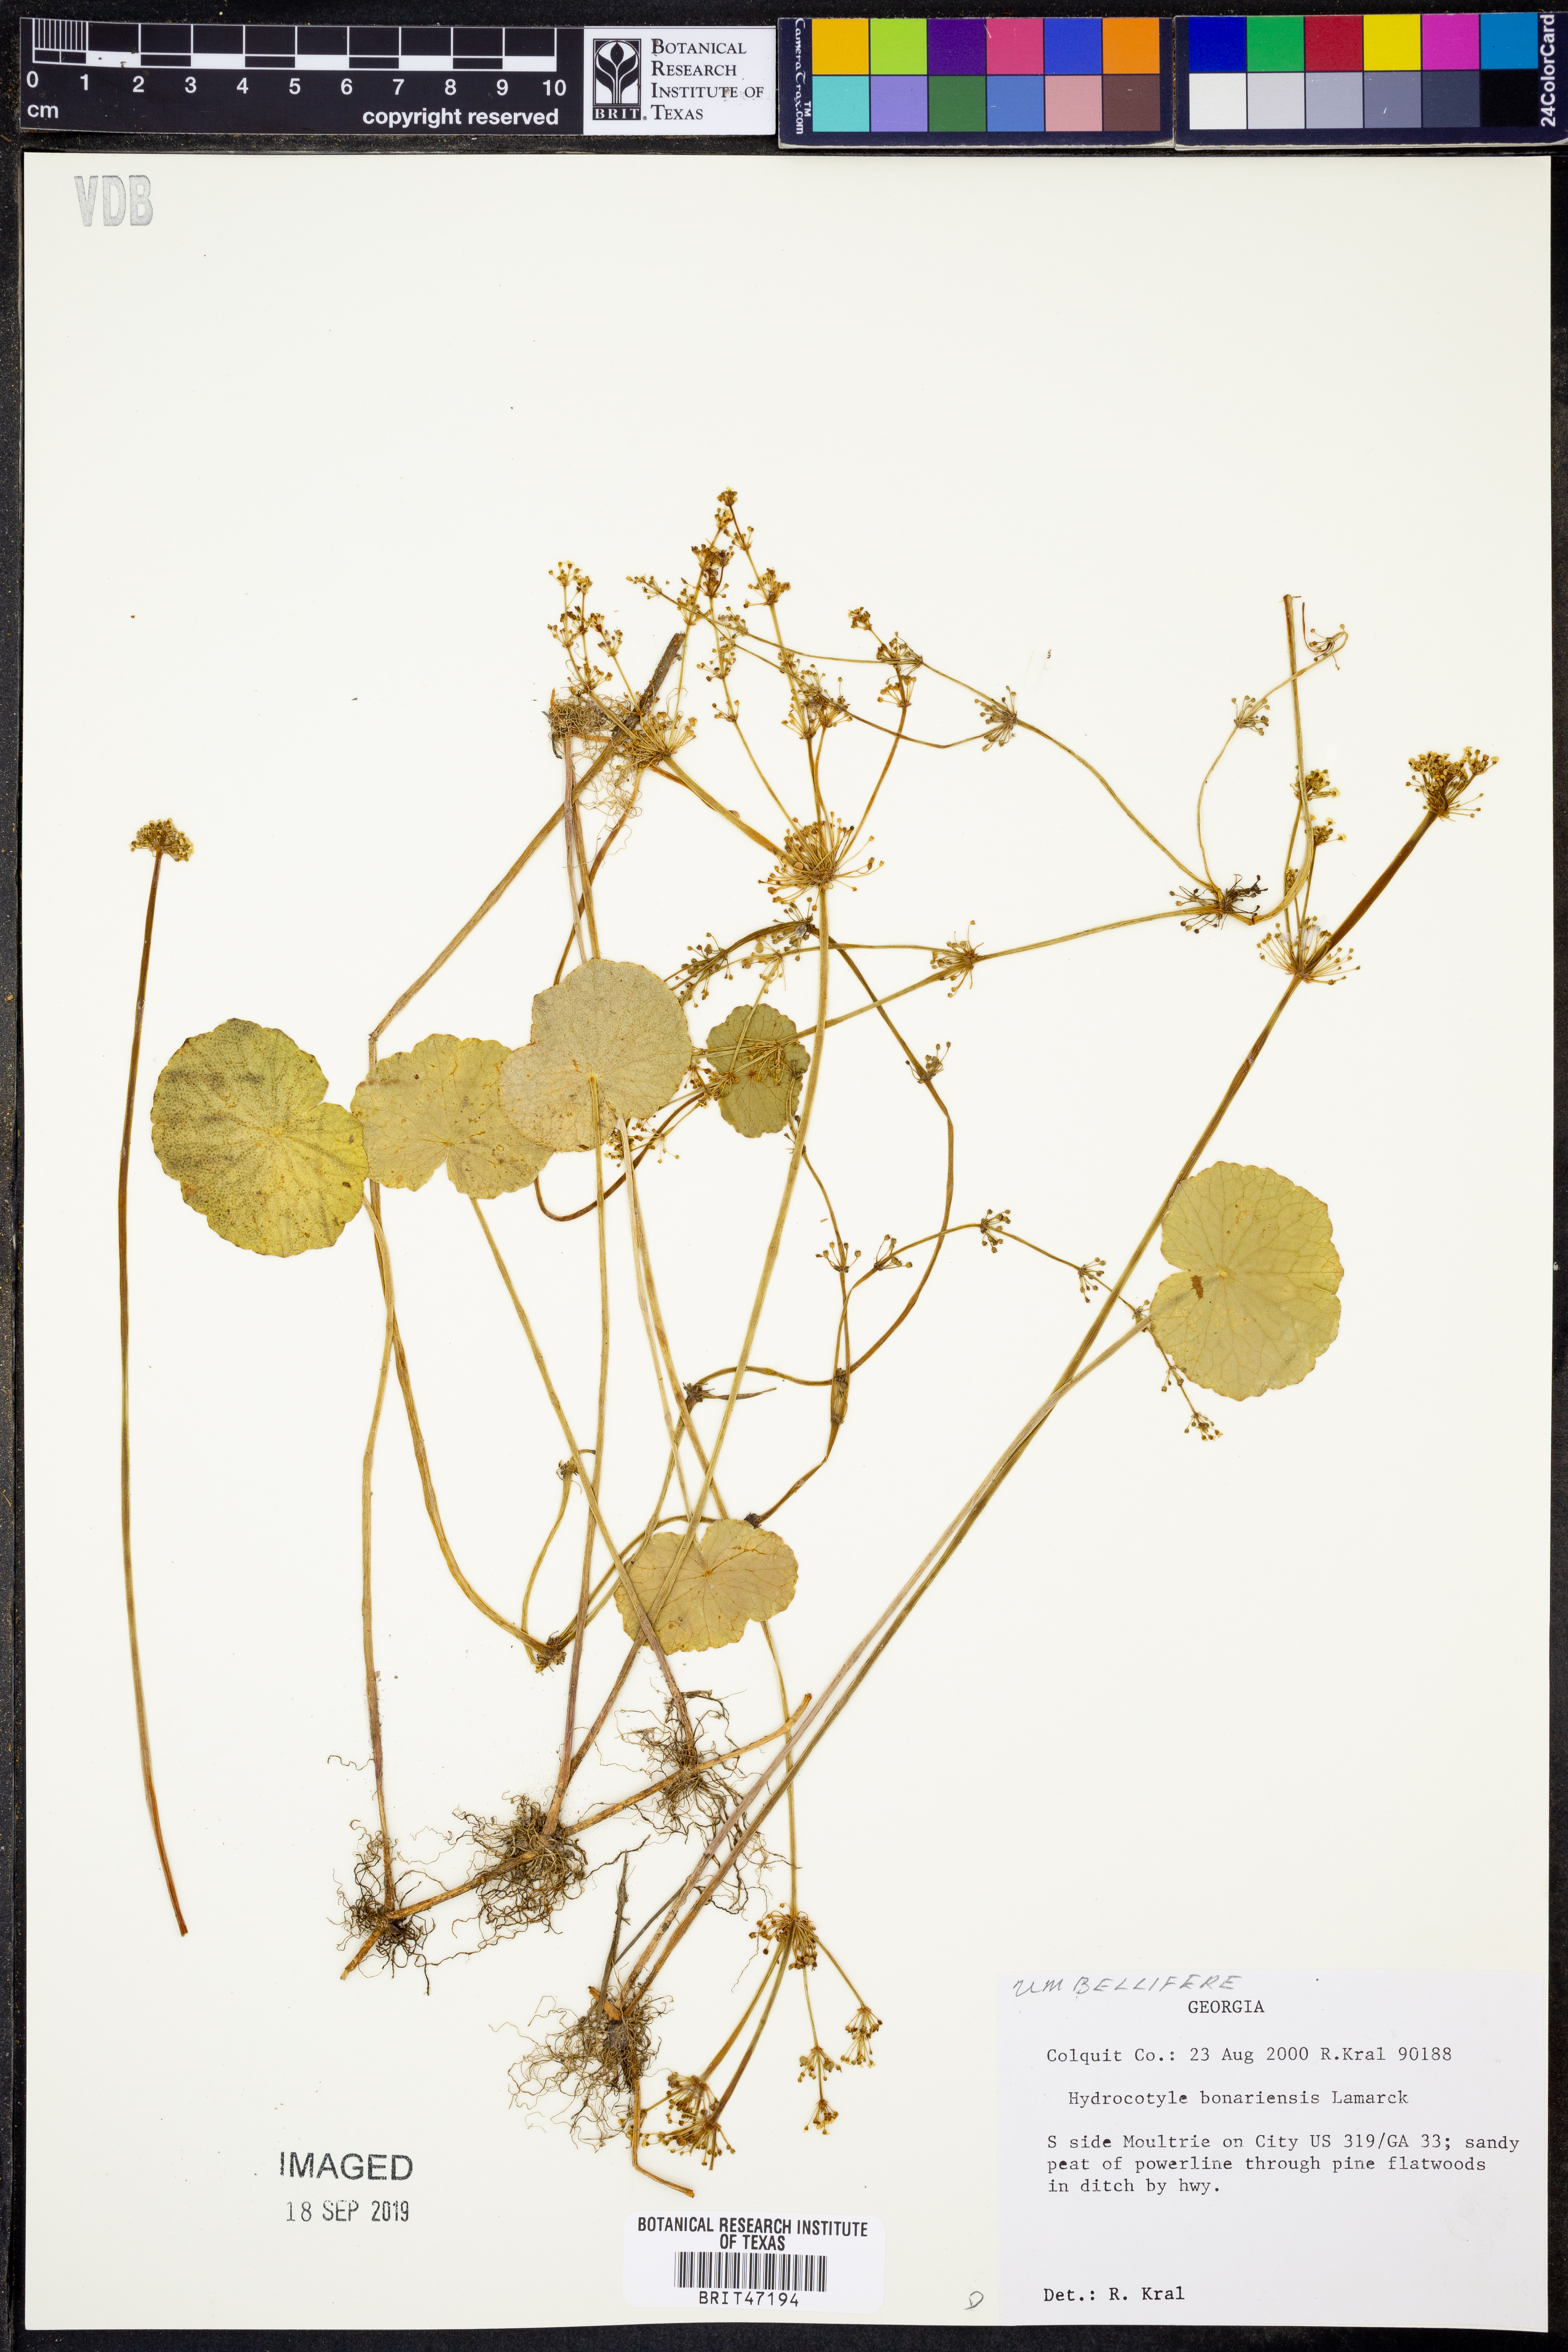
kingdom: Plantae
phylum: Tracheophyta
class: Magnoliopsida
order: Apiales
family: Araliaceae
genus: Hydrocotyle
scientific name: Hydrocotyle bonariensis
